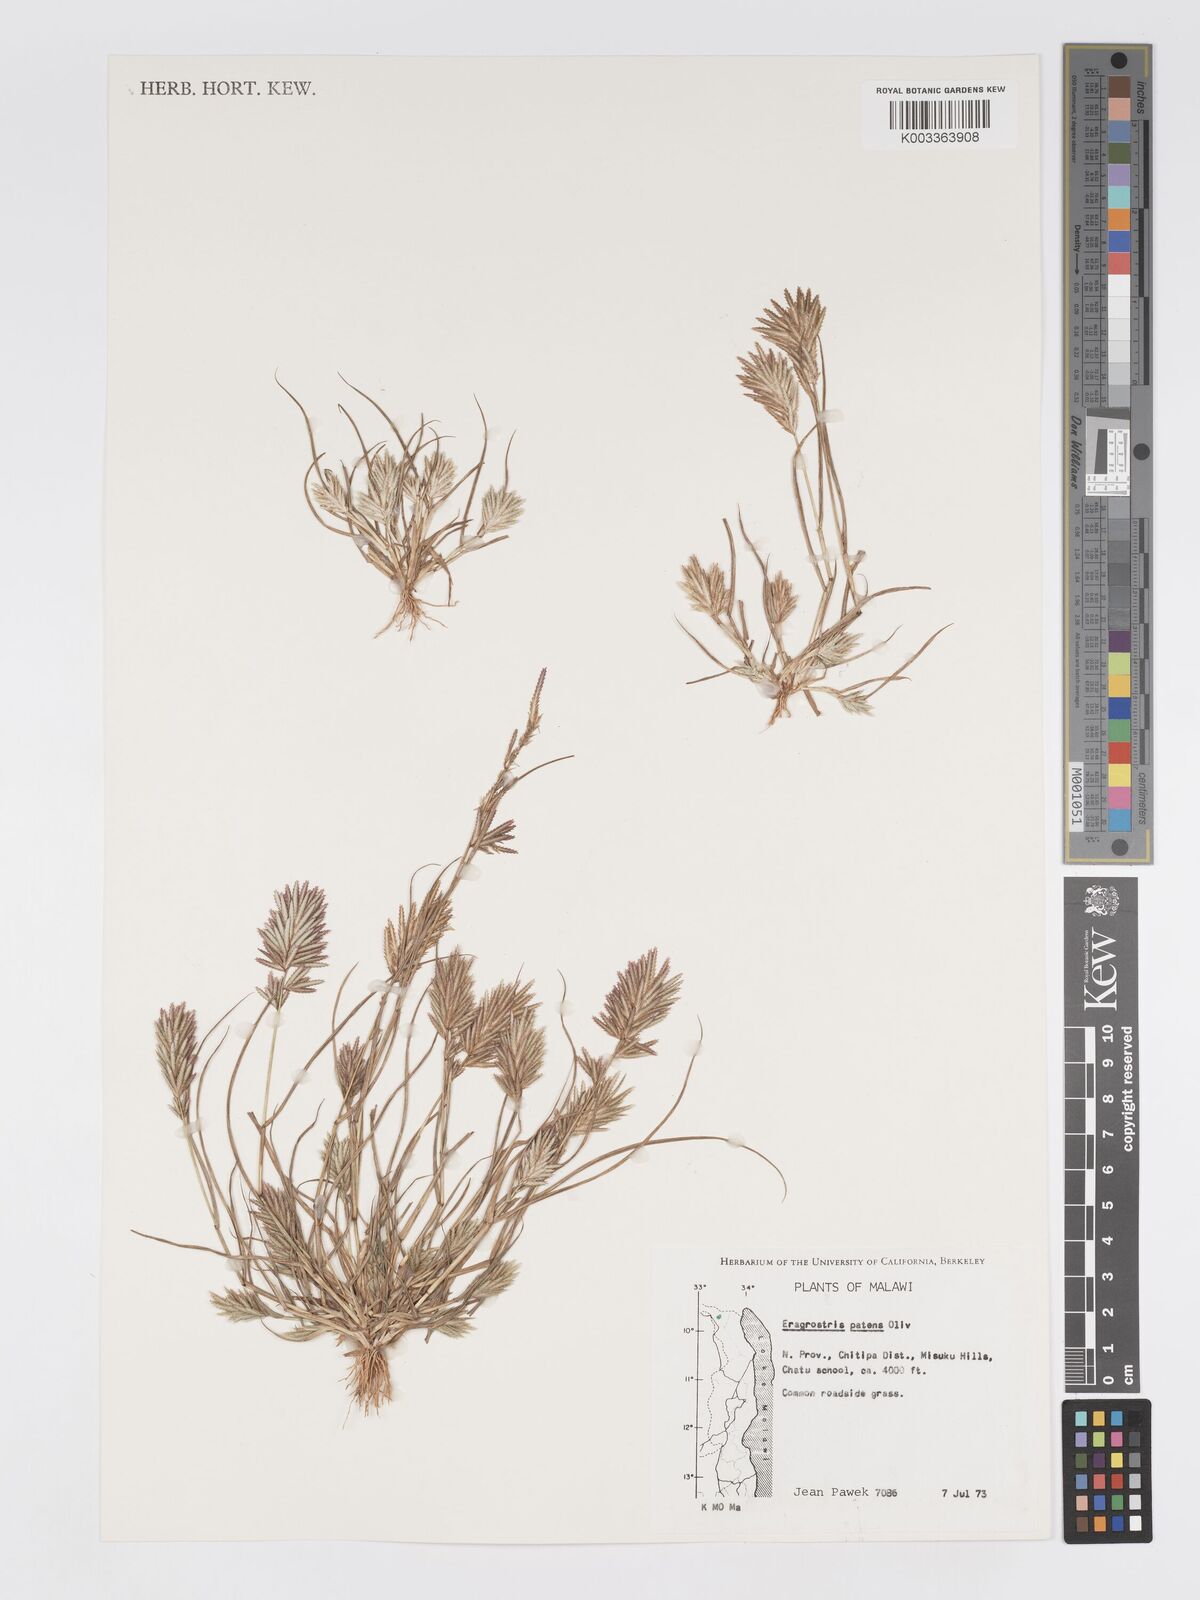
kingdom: Plantae
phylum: Tracheophyta
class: Liliopsida
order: Poales
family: Poaceae
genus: Eragrostis
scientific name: Eragrostis patens
